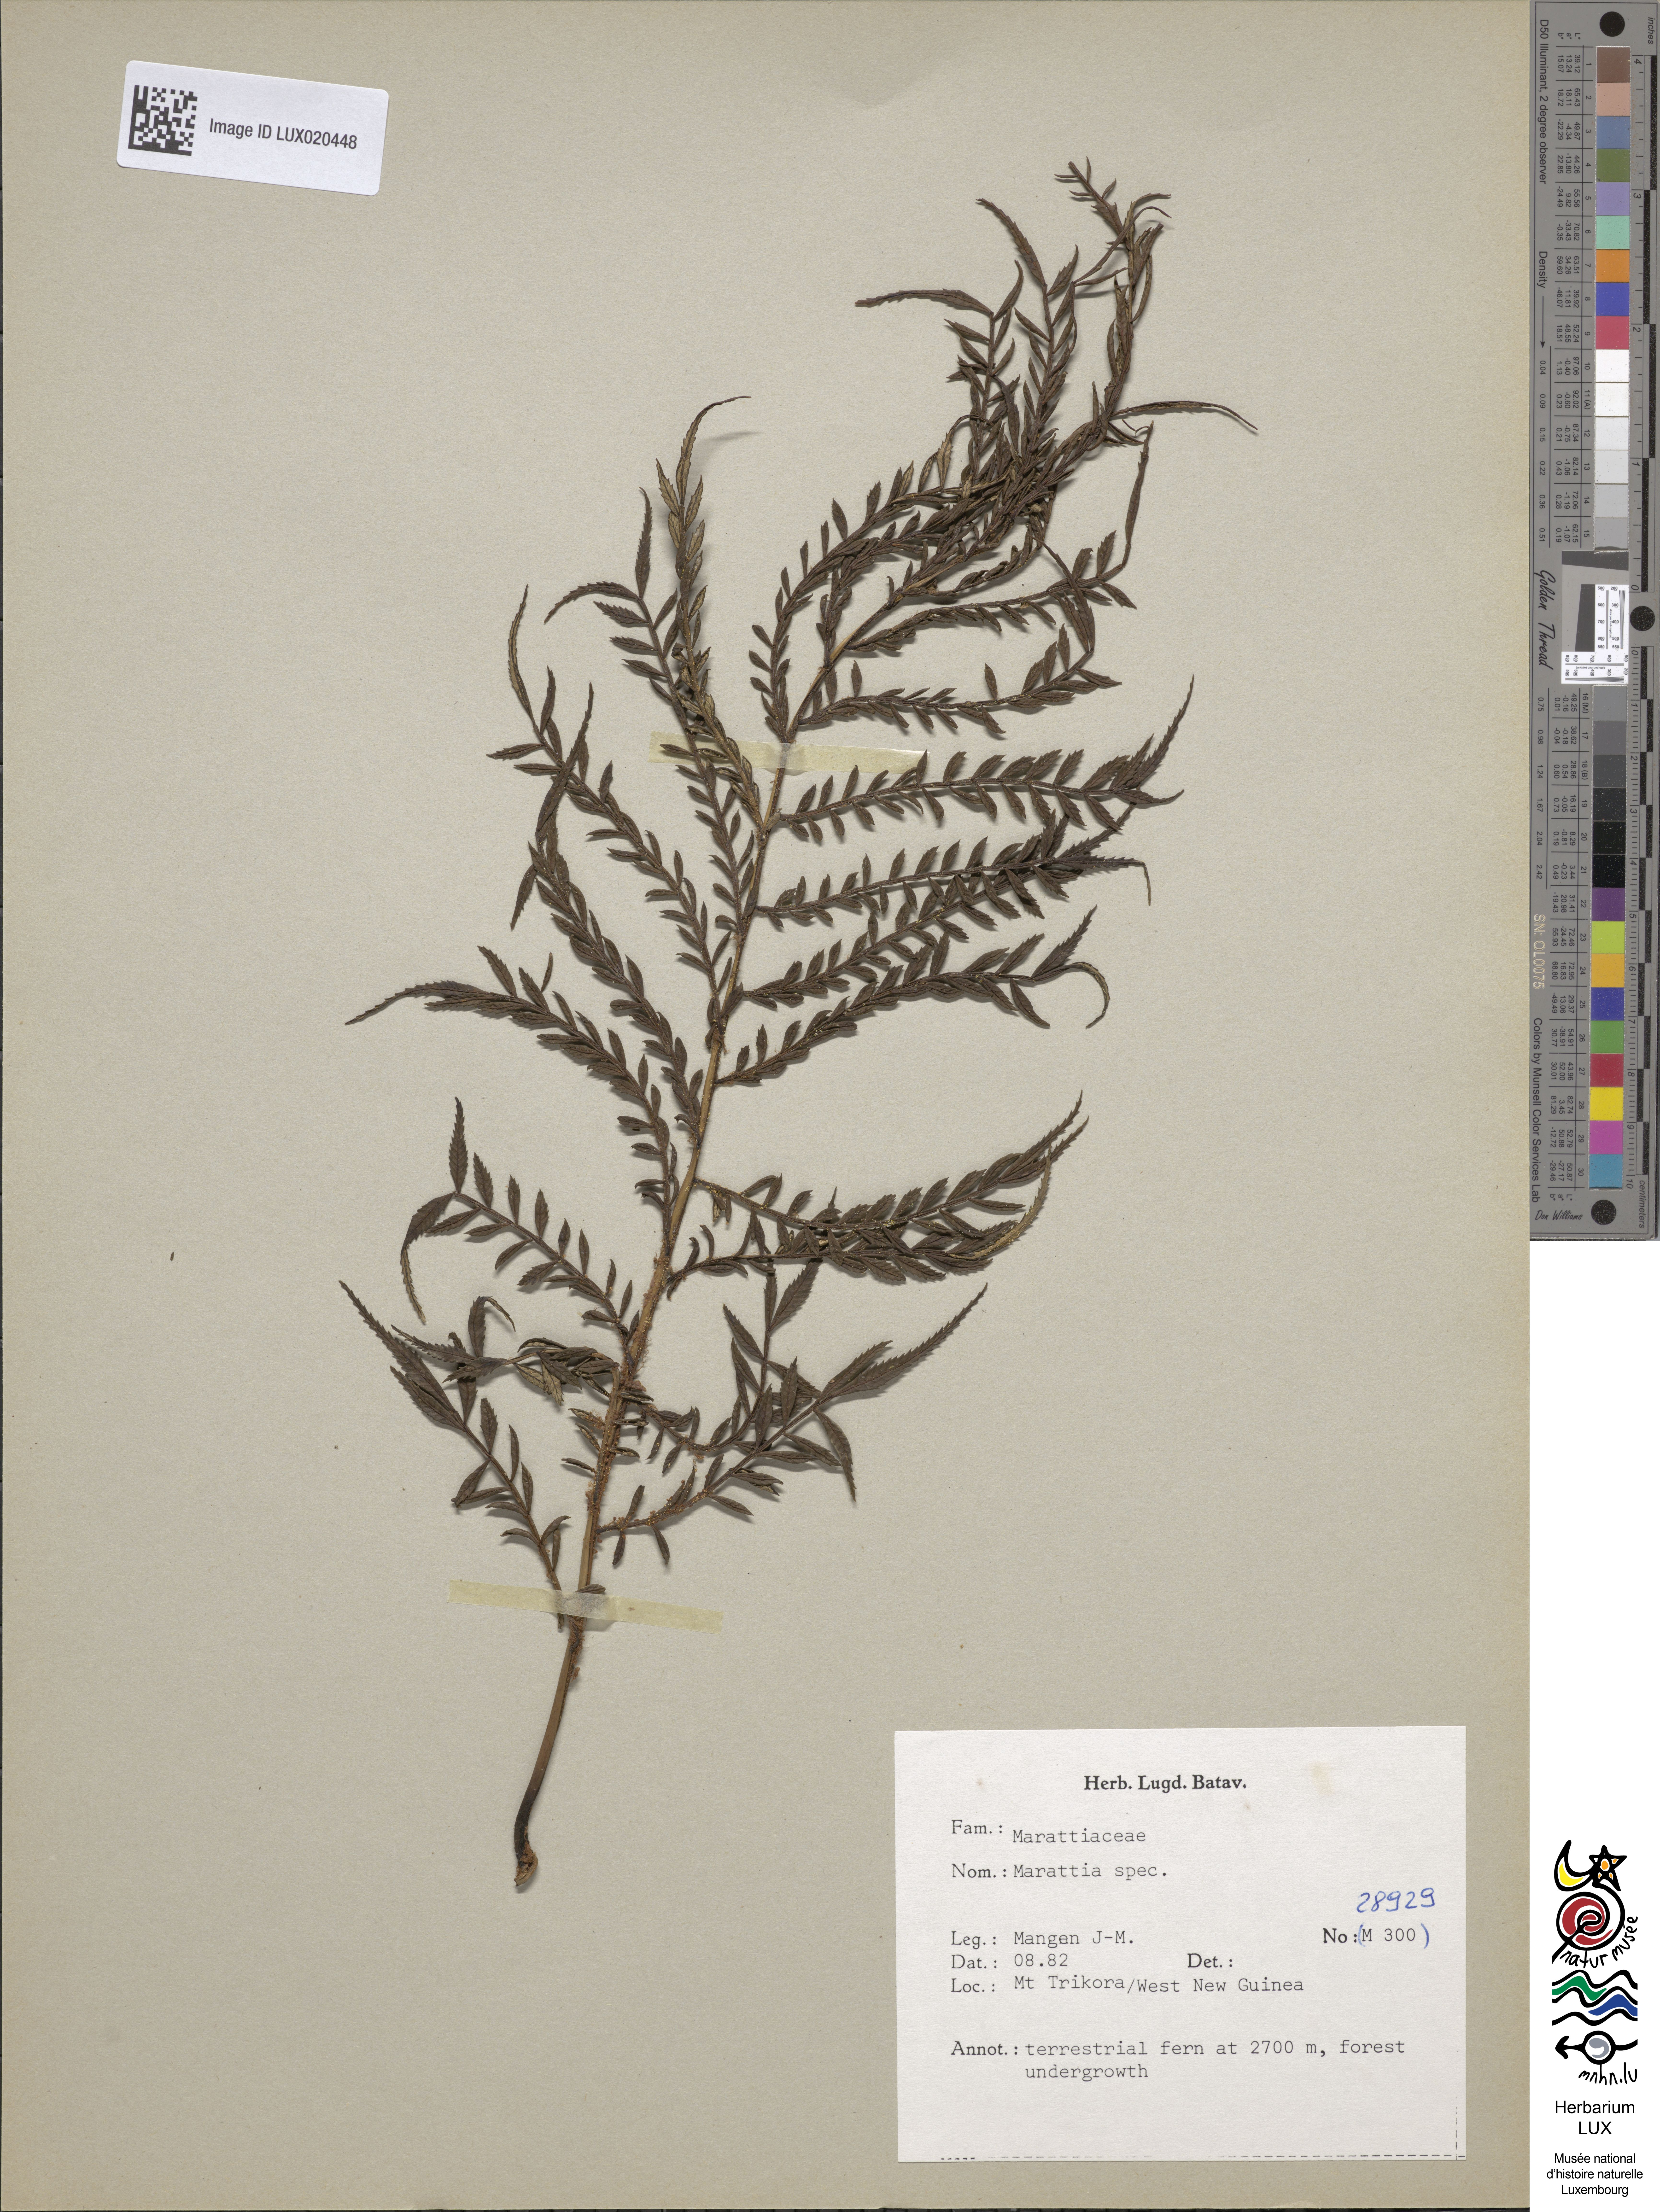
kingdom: Plantae
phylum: Tracheophyta
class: Polypodiopsida
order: Marattiales
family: Marattiaceae
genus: Marattia
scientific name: Marattia
